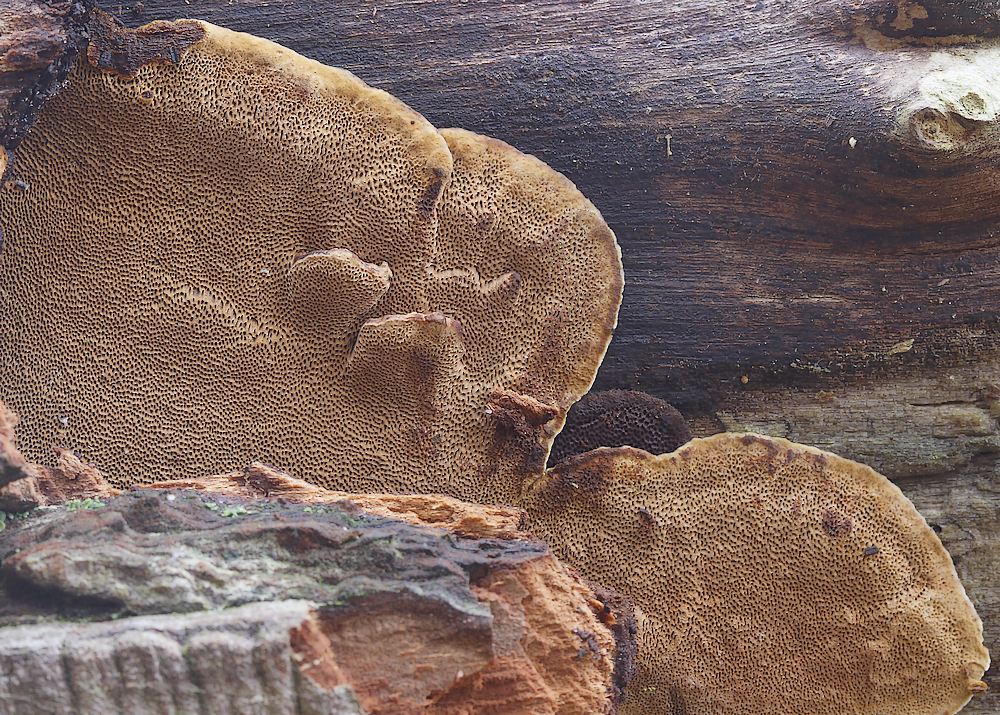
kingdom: Fungi
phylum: Basidiomycota
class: Agaricomycetes
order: Hymenochaetales
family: Hymenochaetaceae
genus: Phellinopsis
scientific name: Phellinopsis conchata
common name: pile-ildporesvamp
